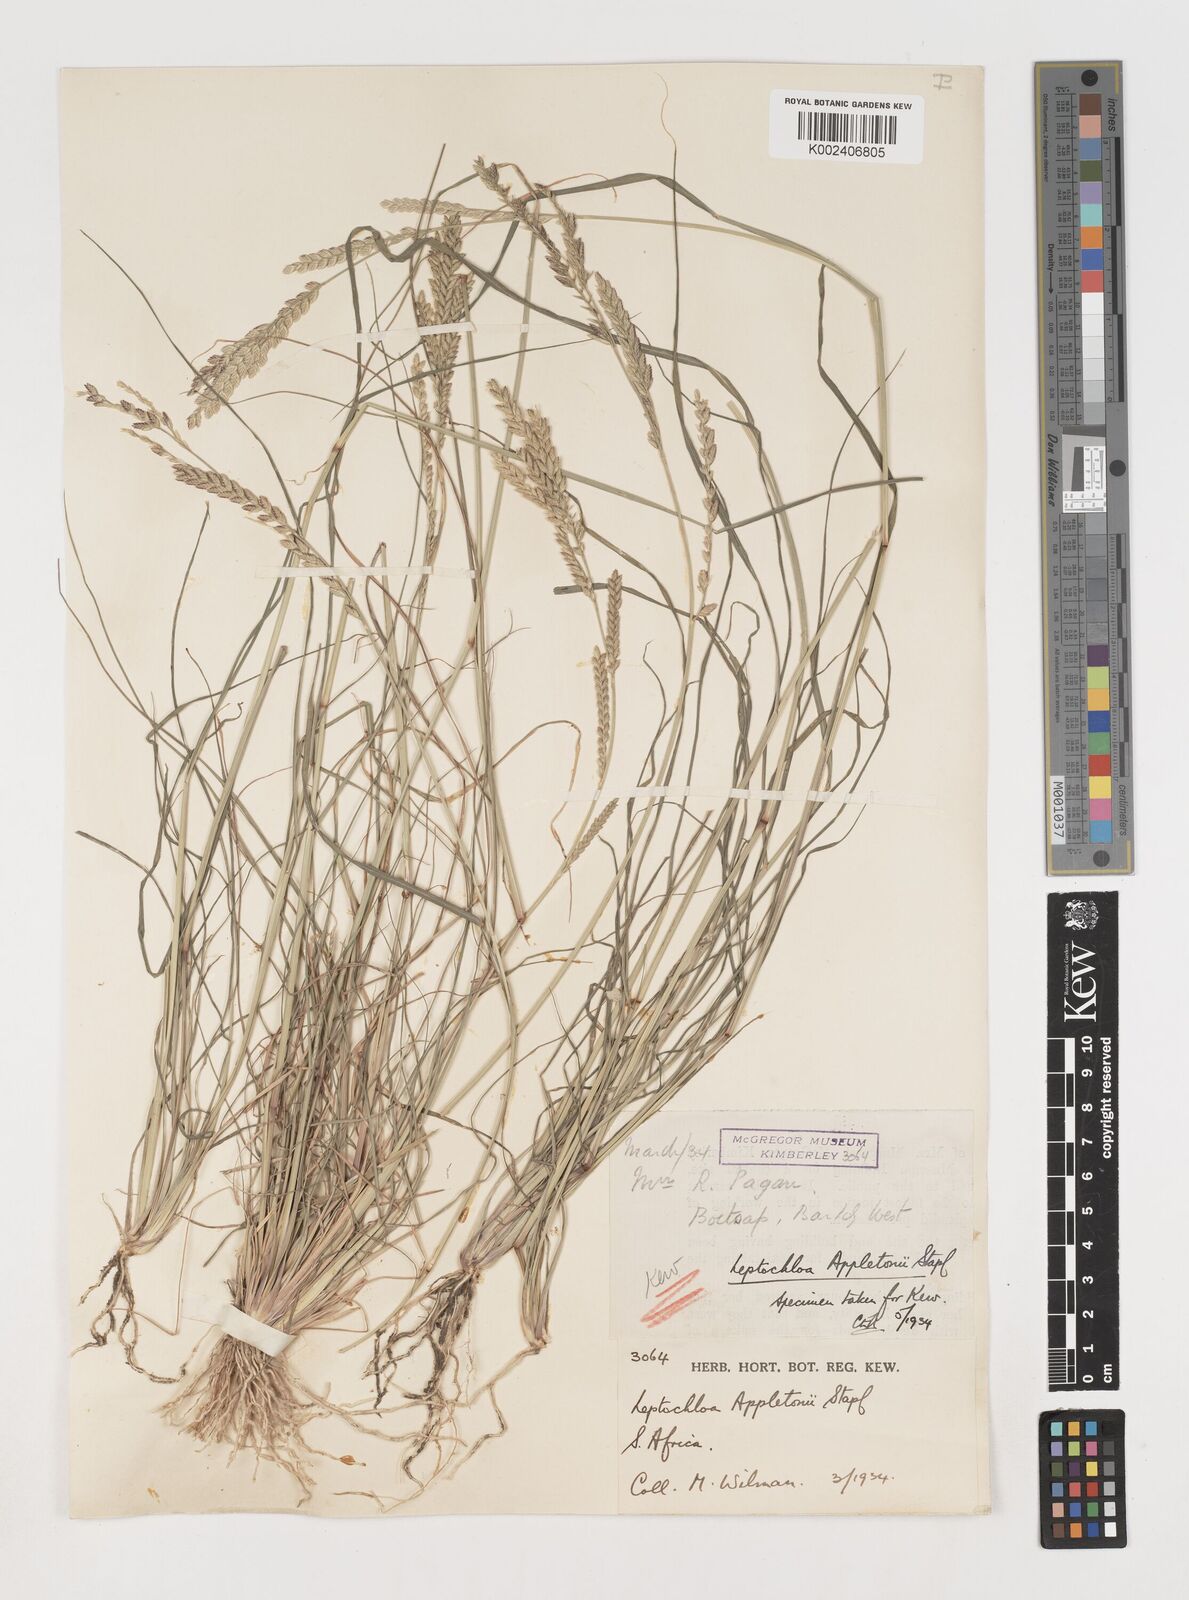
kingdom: Plantae
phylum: Tracheophyta
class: Liliopsida
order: Poales
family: Poaceae
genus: Disakisperma
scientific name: Disakisperma yemenicum
